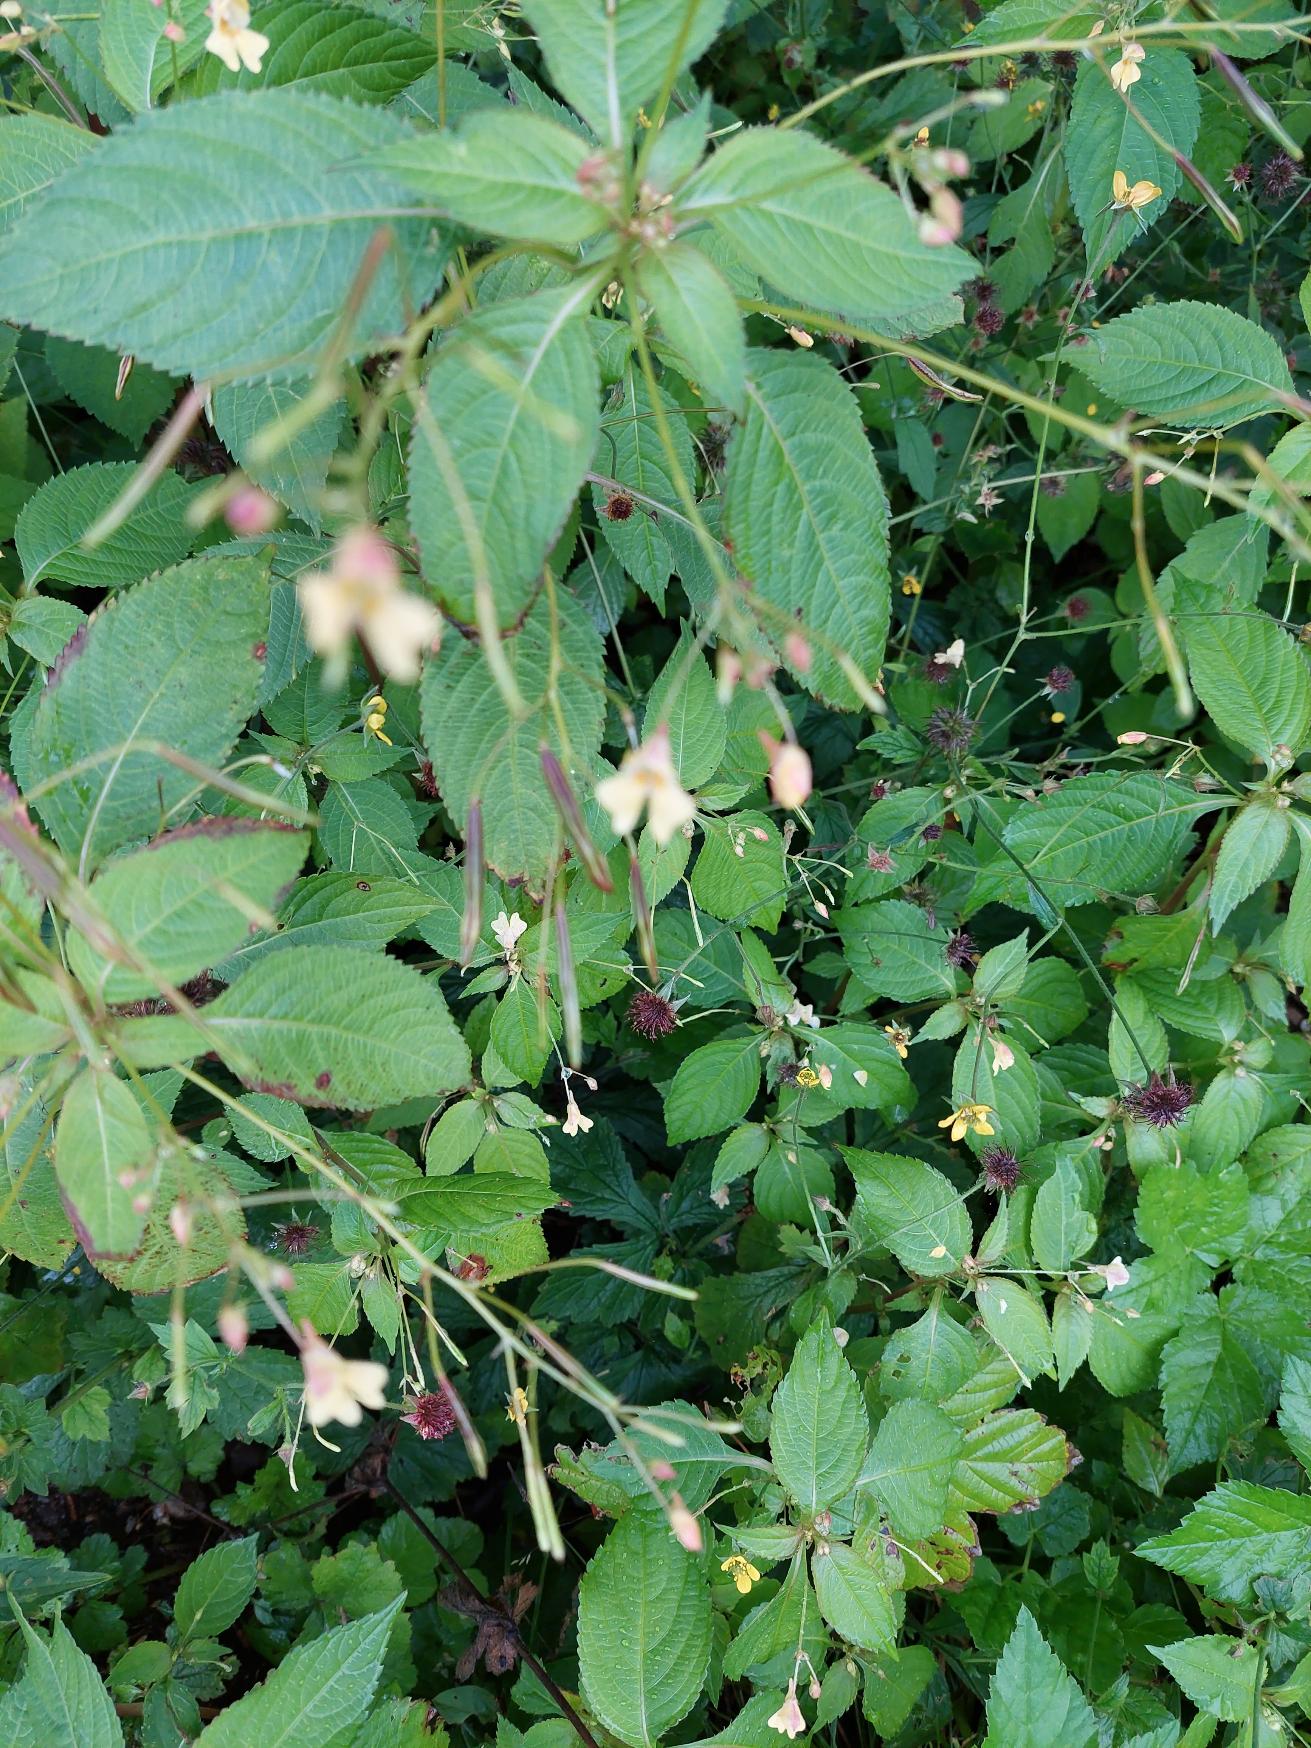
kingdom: Plantae
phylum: Tracheophyta
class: Magnoliopsida
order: Ericales
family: Balsaminaceae
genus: Impatiens
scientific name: Impatiens parviflora
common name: Småblomstret balsamin
